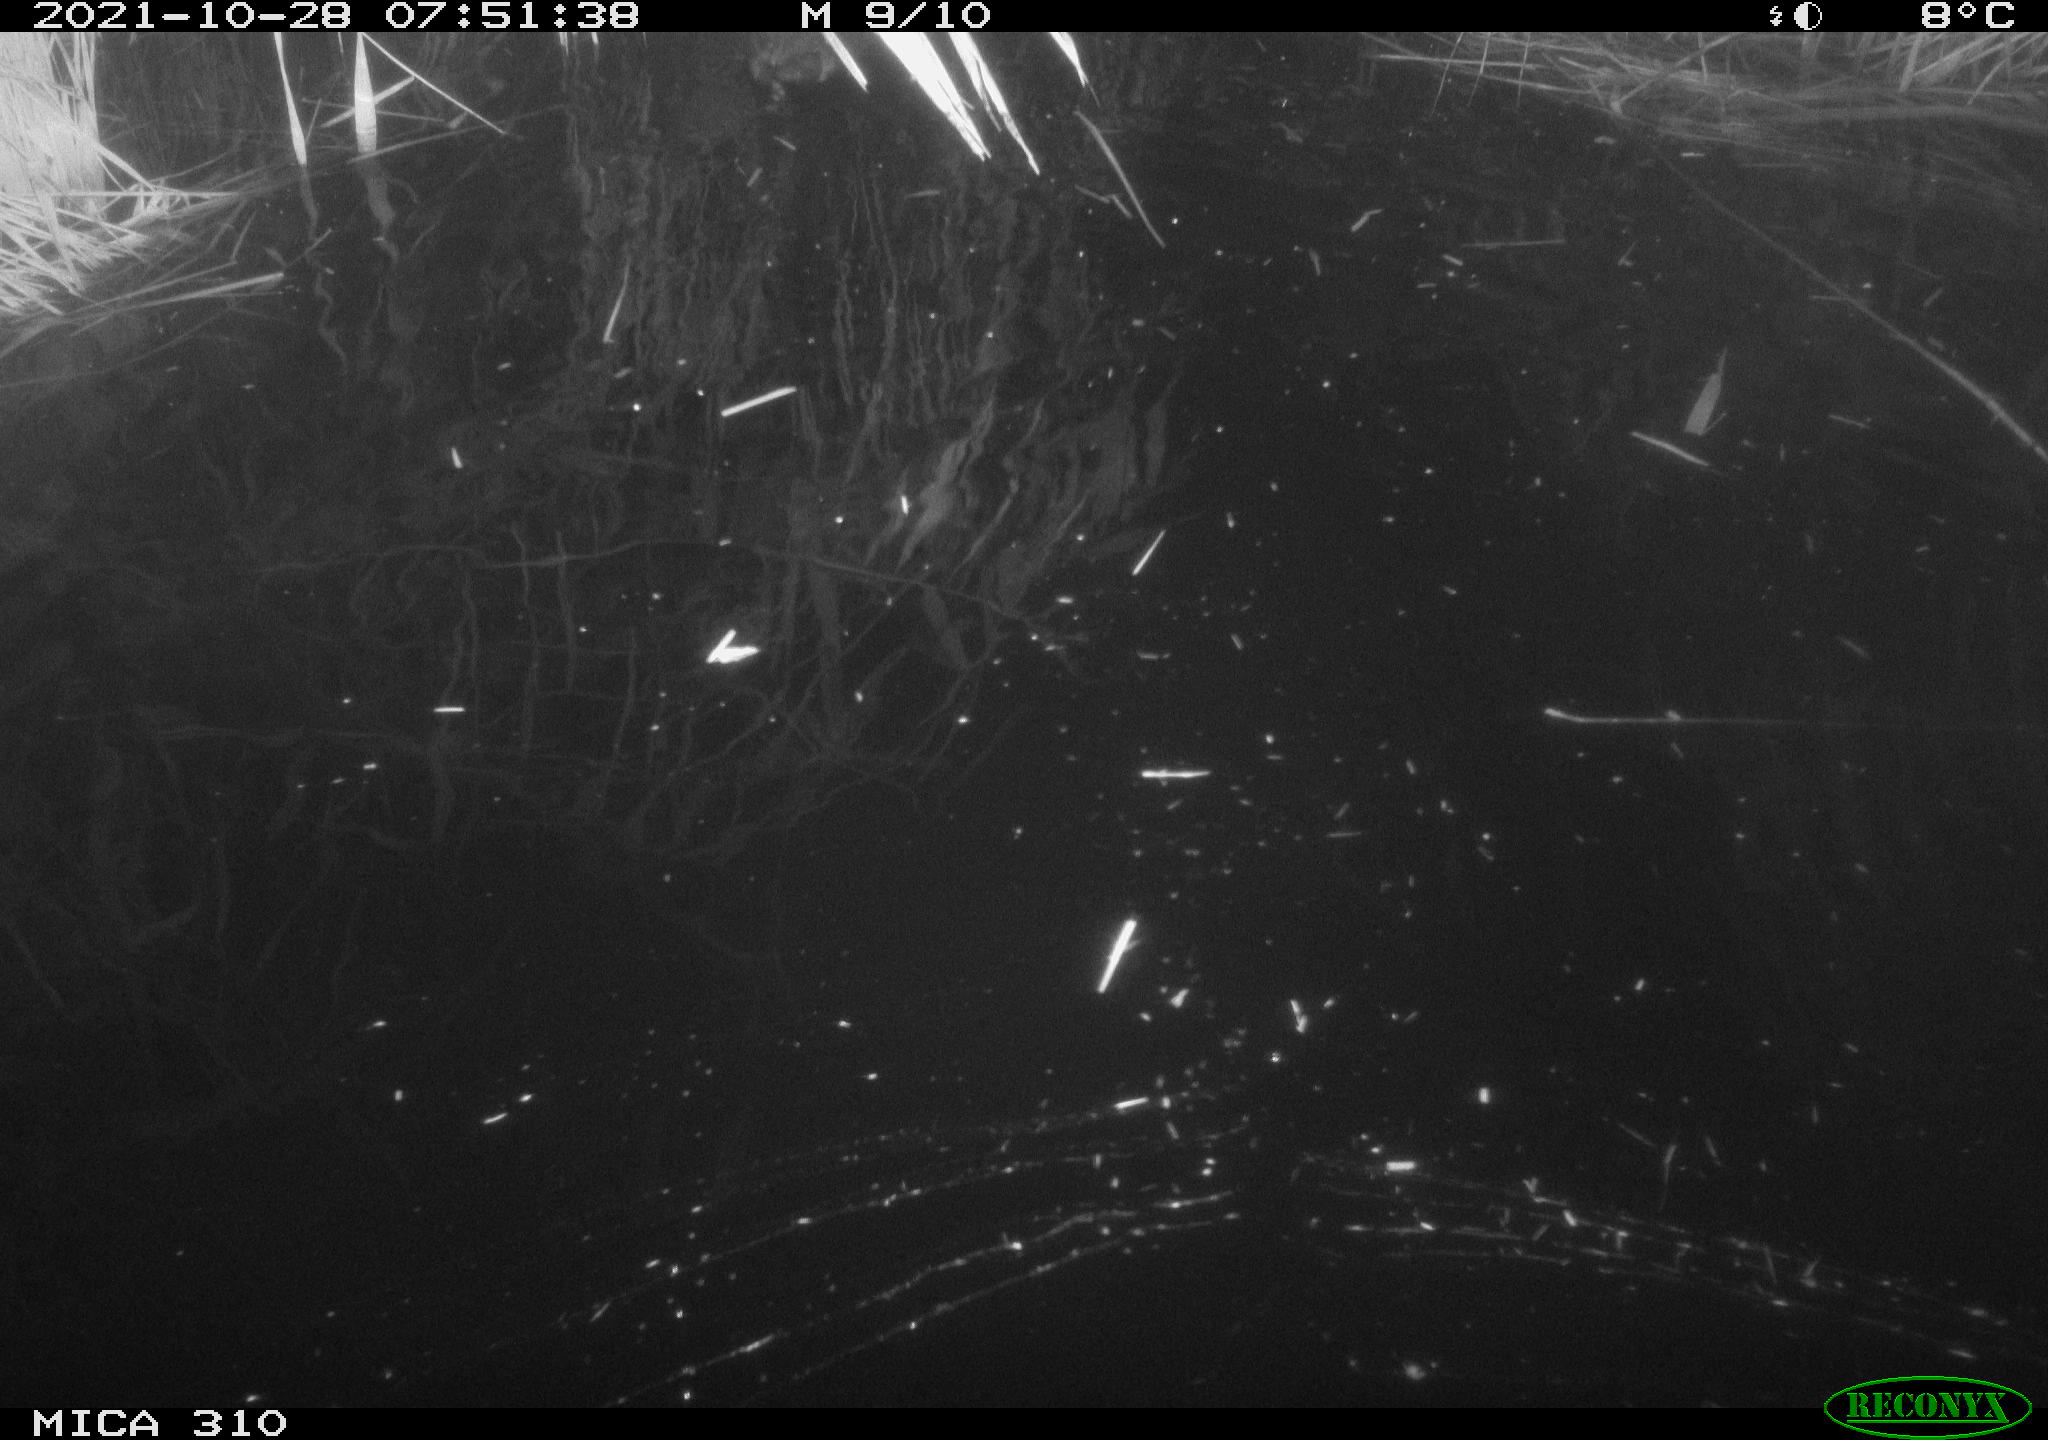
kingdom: Animalia
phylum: Chordata
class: Aves
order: Gruiformes
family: Rallidae
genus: Fulica
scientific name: Fulica atra
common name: Eurasian coot
